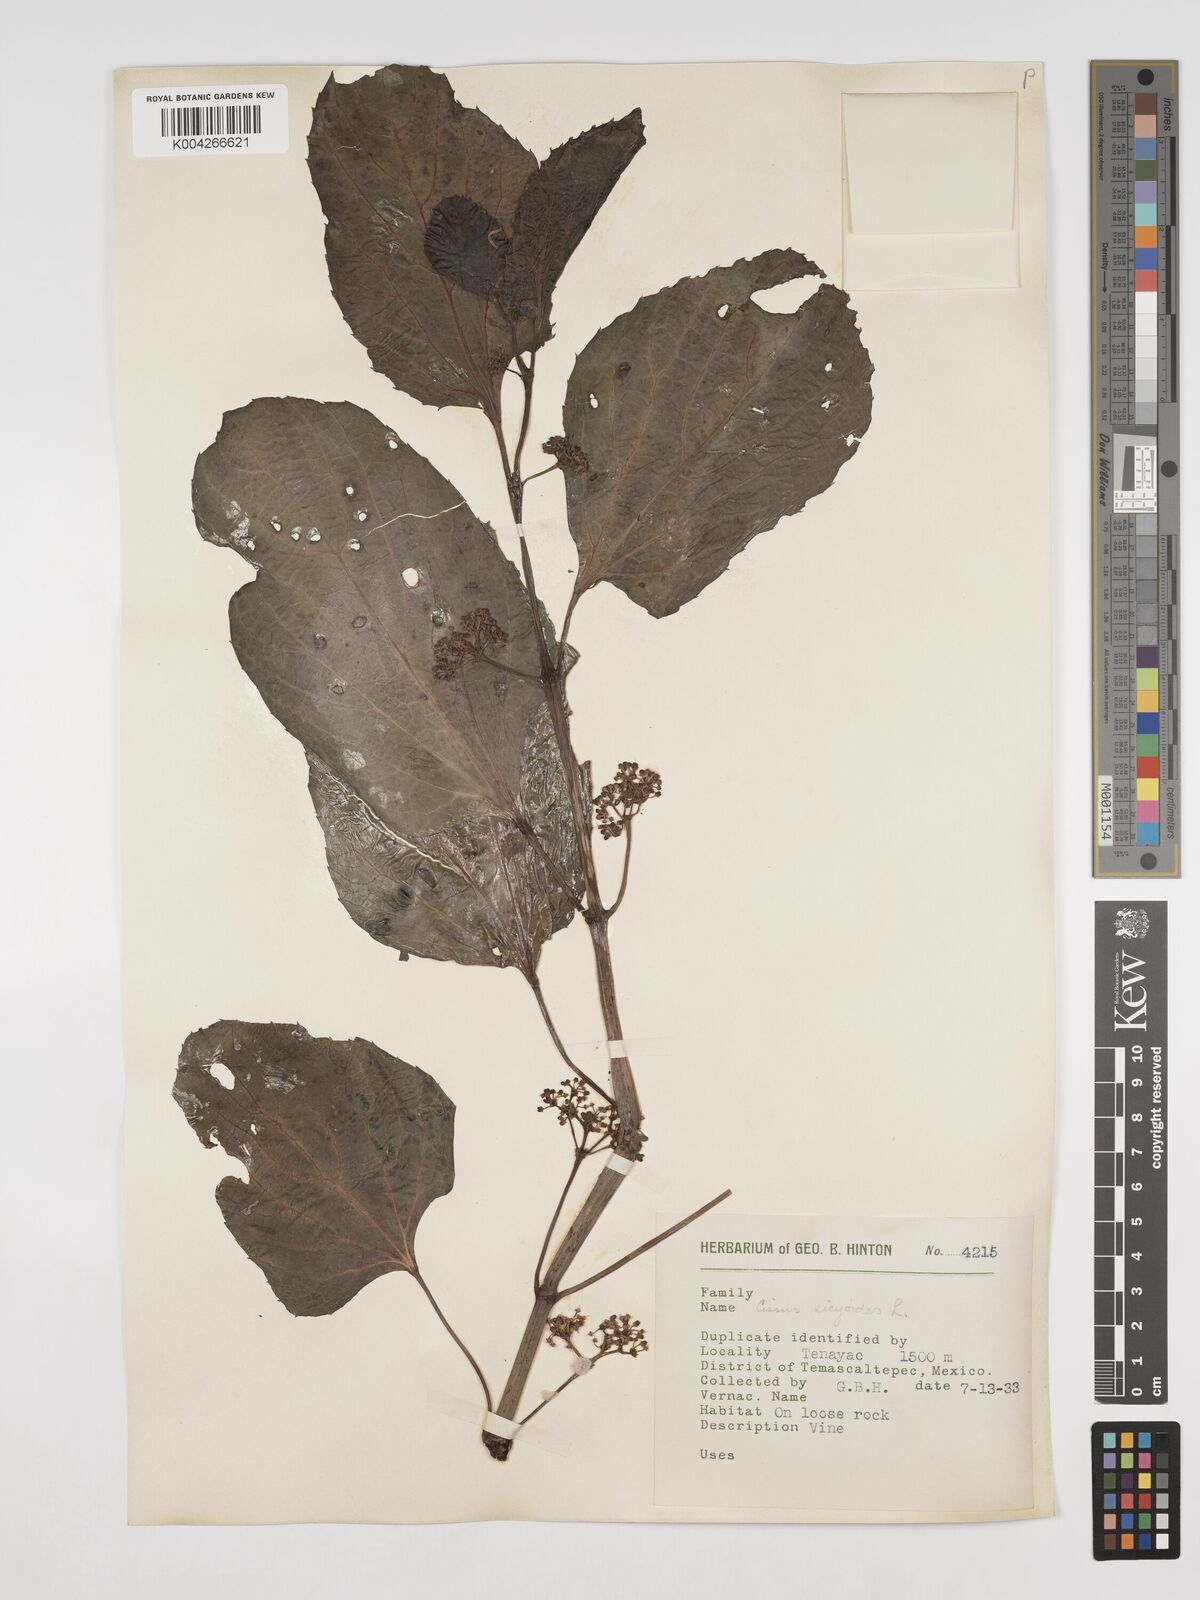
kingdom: Plantae
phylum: Tracheophyta
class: Magnoliopsida
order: Vitales
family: Vitaceae
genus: Cissus
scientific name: Cissus
